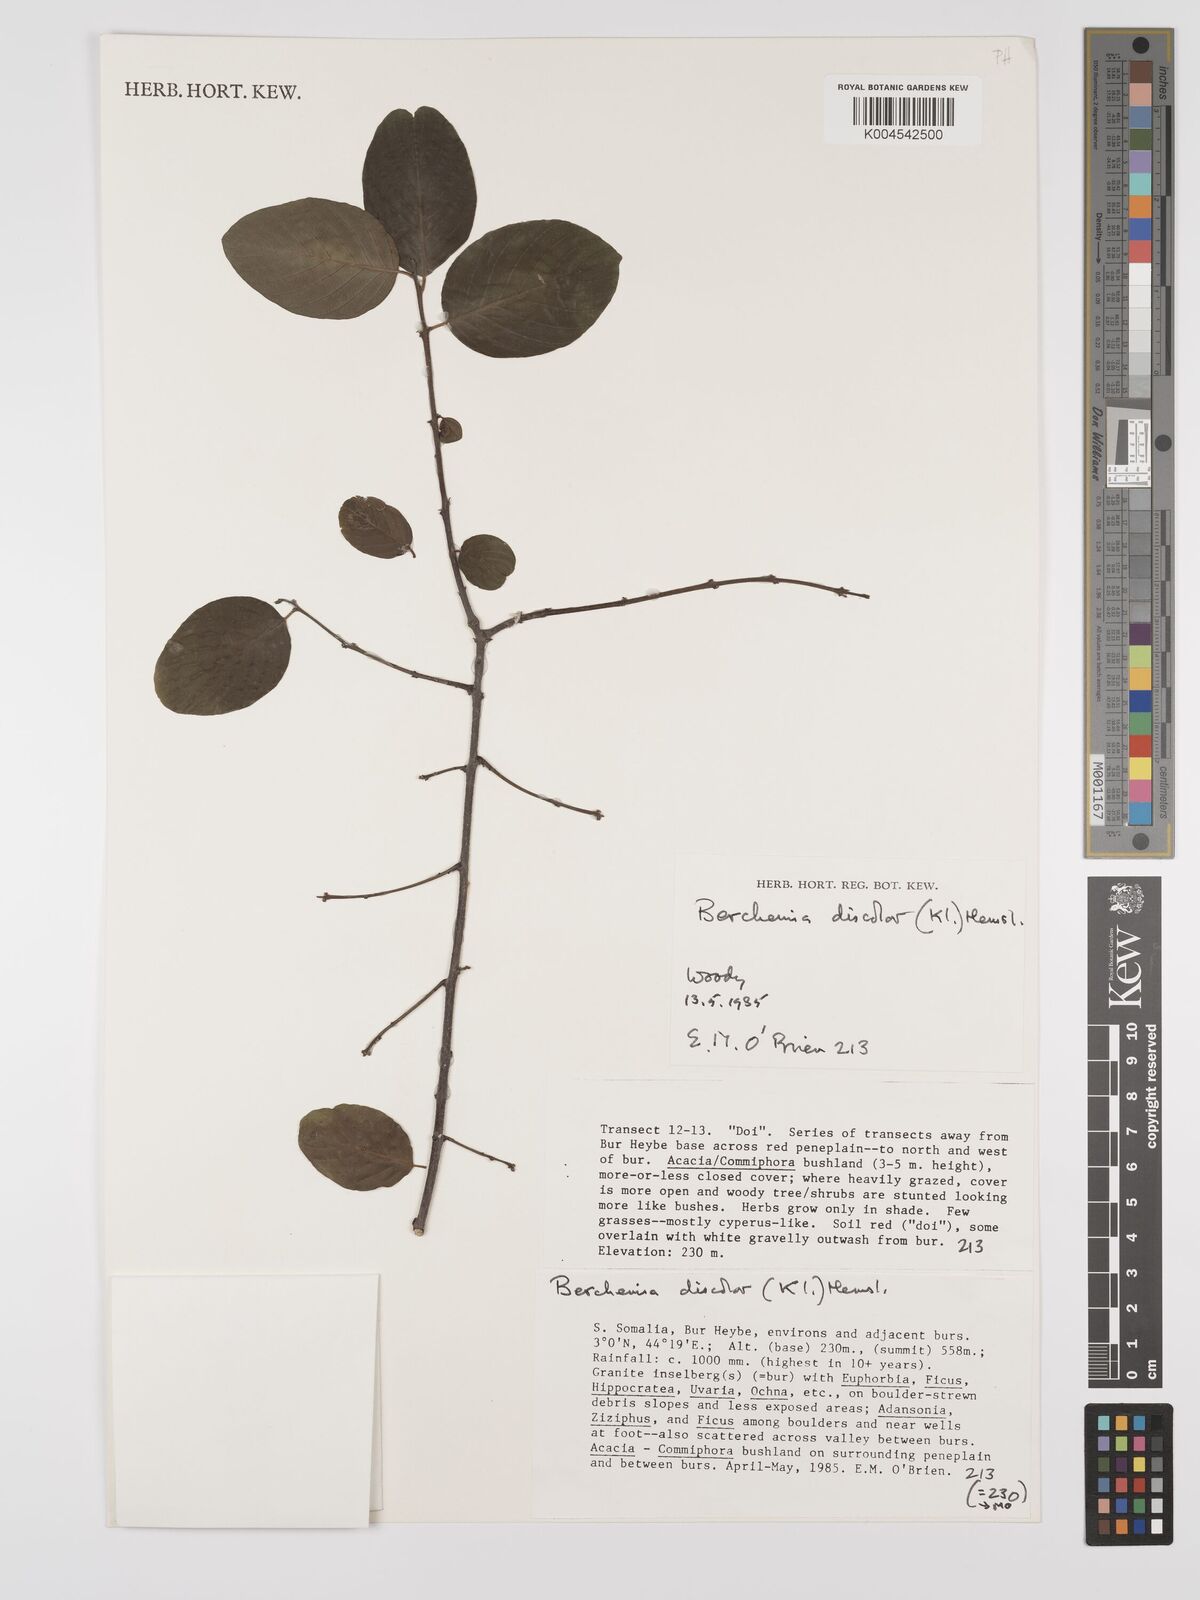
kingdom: Plantae
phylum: Tracheophyta
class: Magnoliopsida
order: Rosales
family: Rhamnaceae
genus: Phyllogeiton
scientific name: Phyllogeiton discolor
